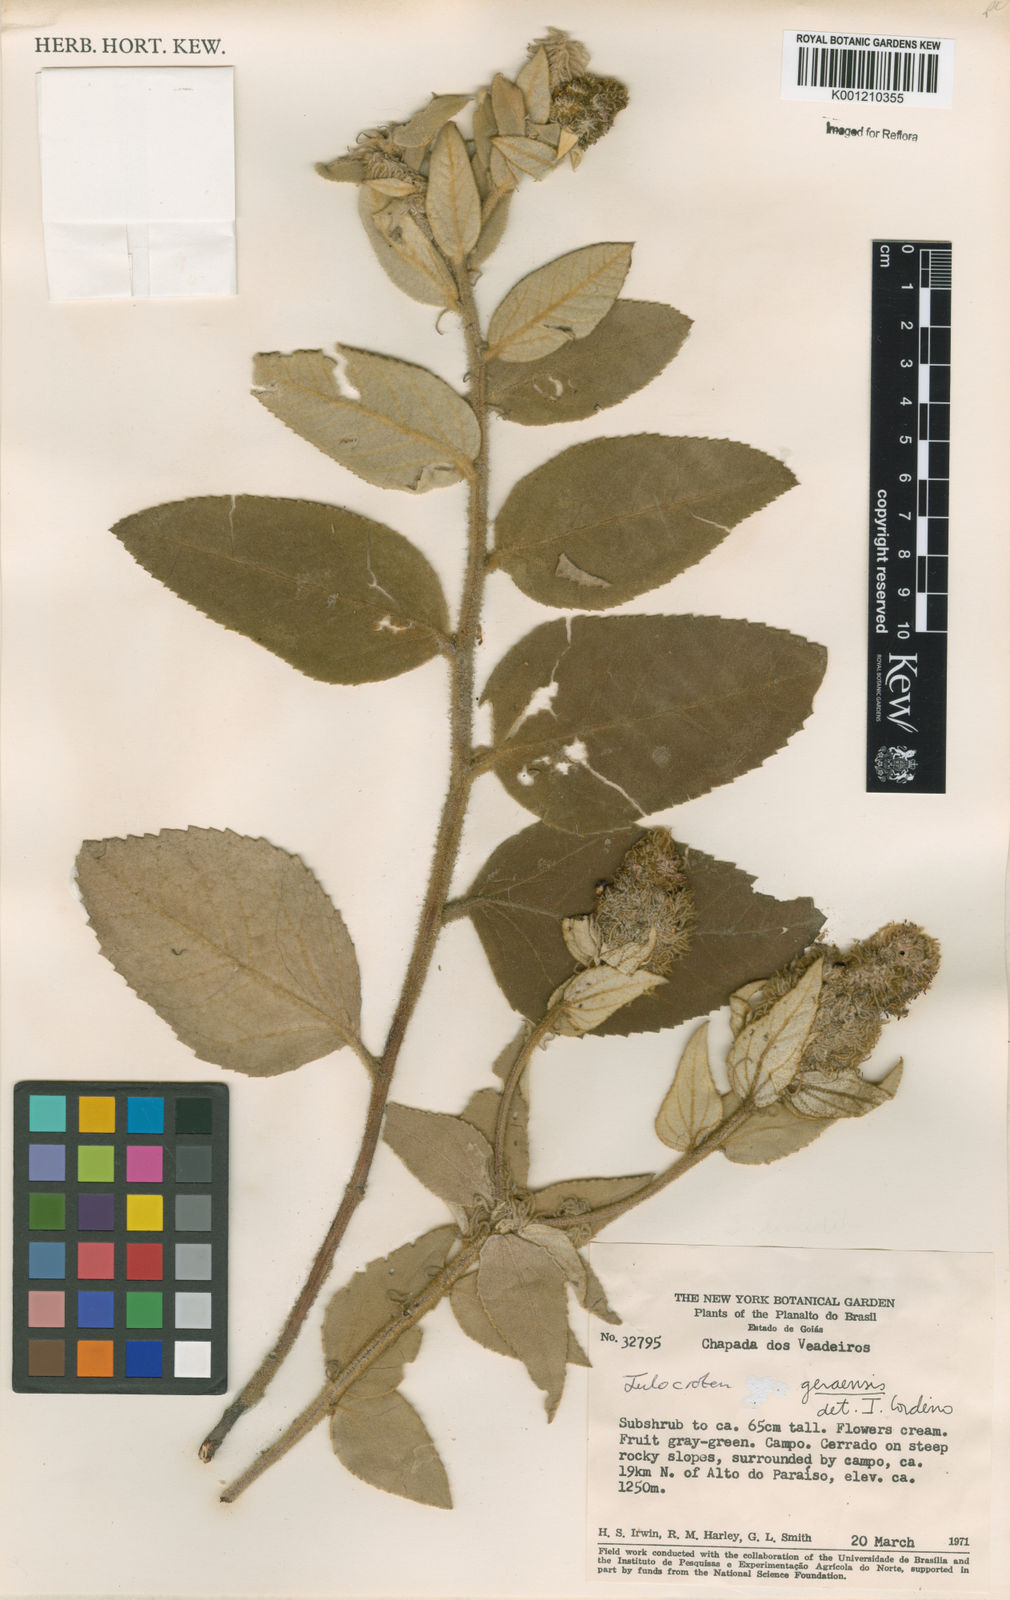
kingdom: Plantae
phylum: Tracheophyta
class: Magnoliopsida
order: Malpighiales
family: Euphorbiaceae
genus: Croton
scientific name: Croton
